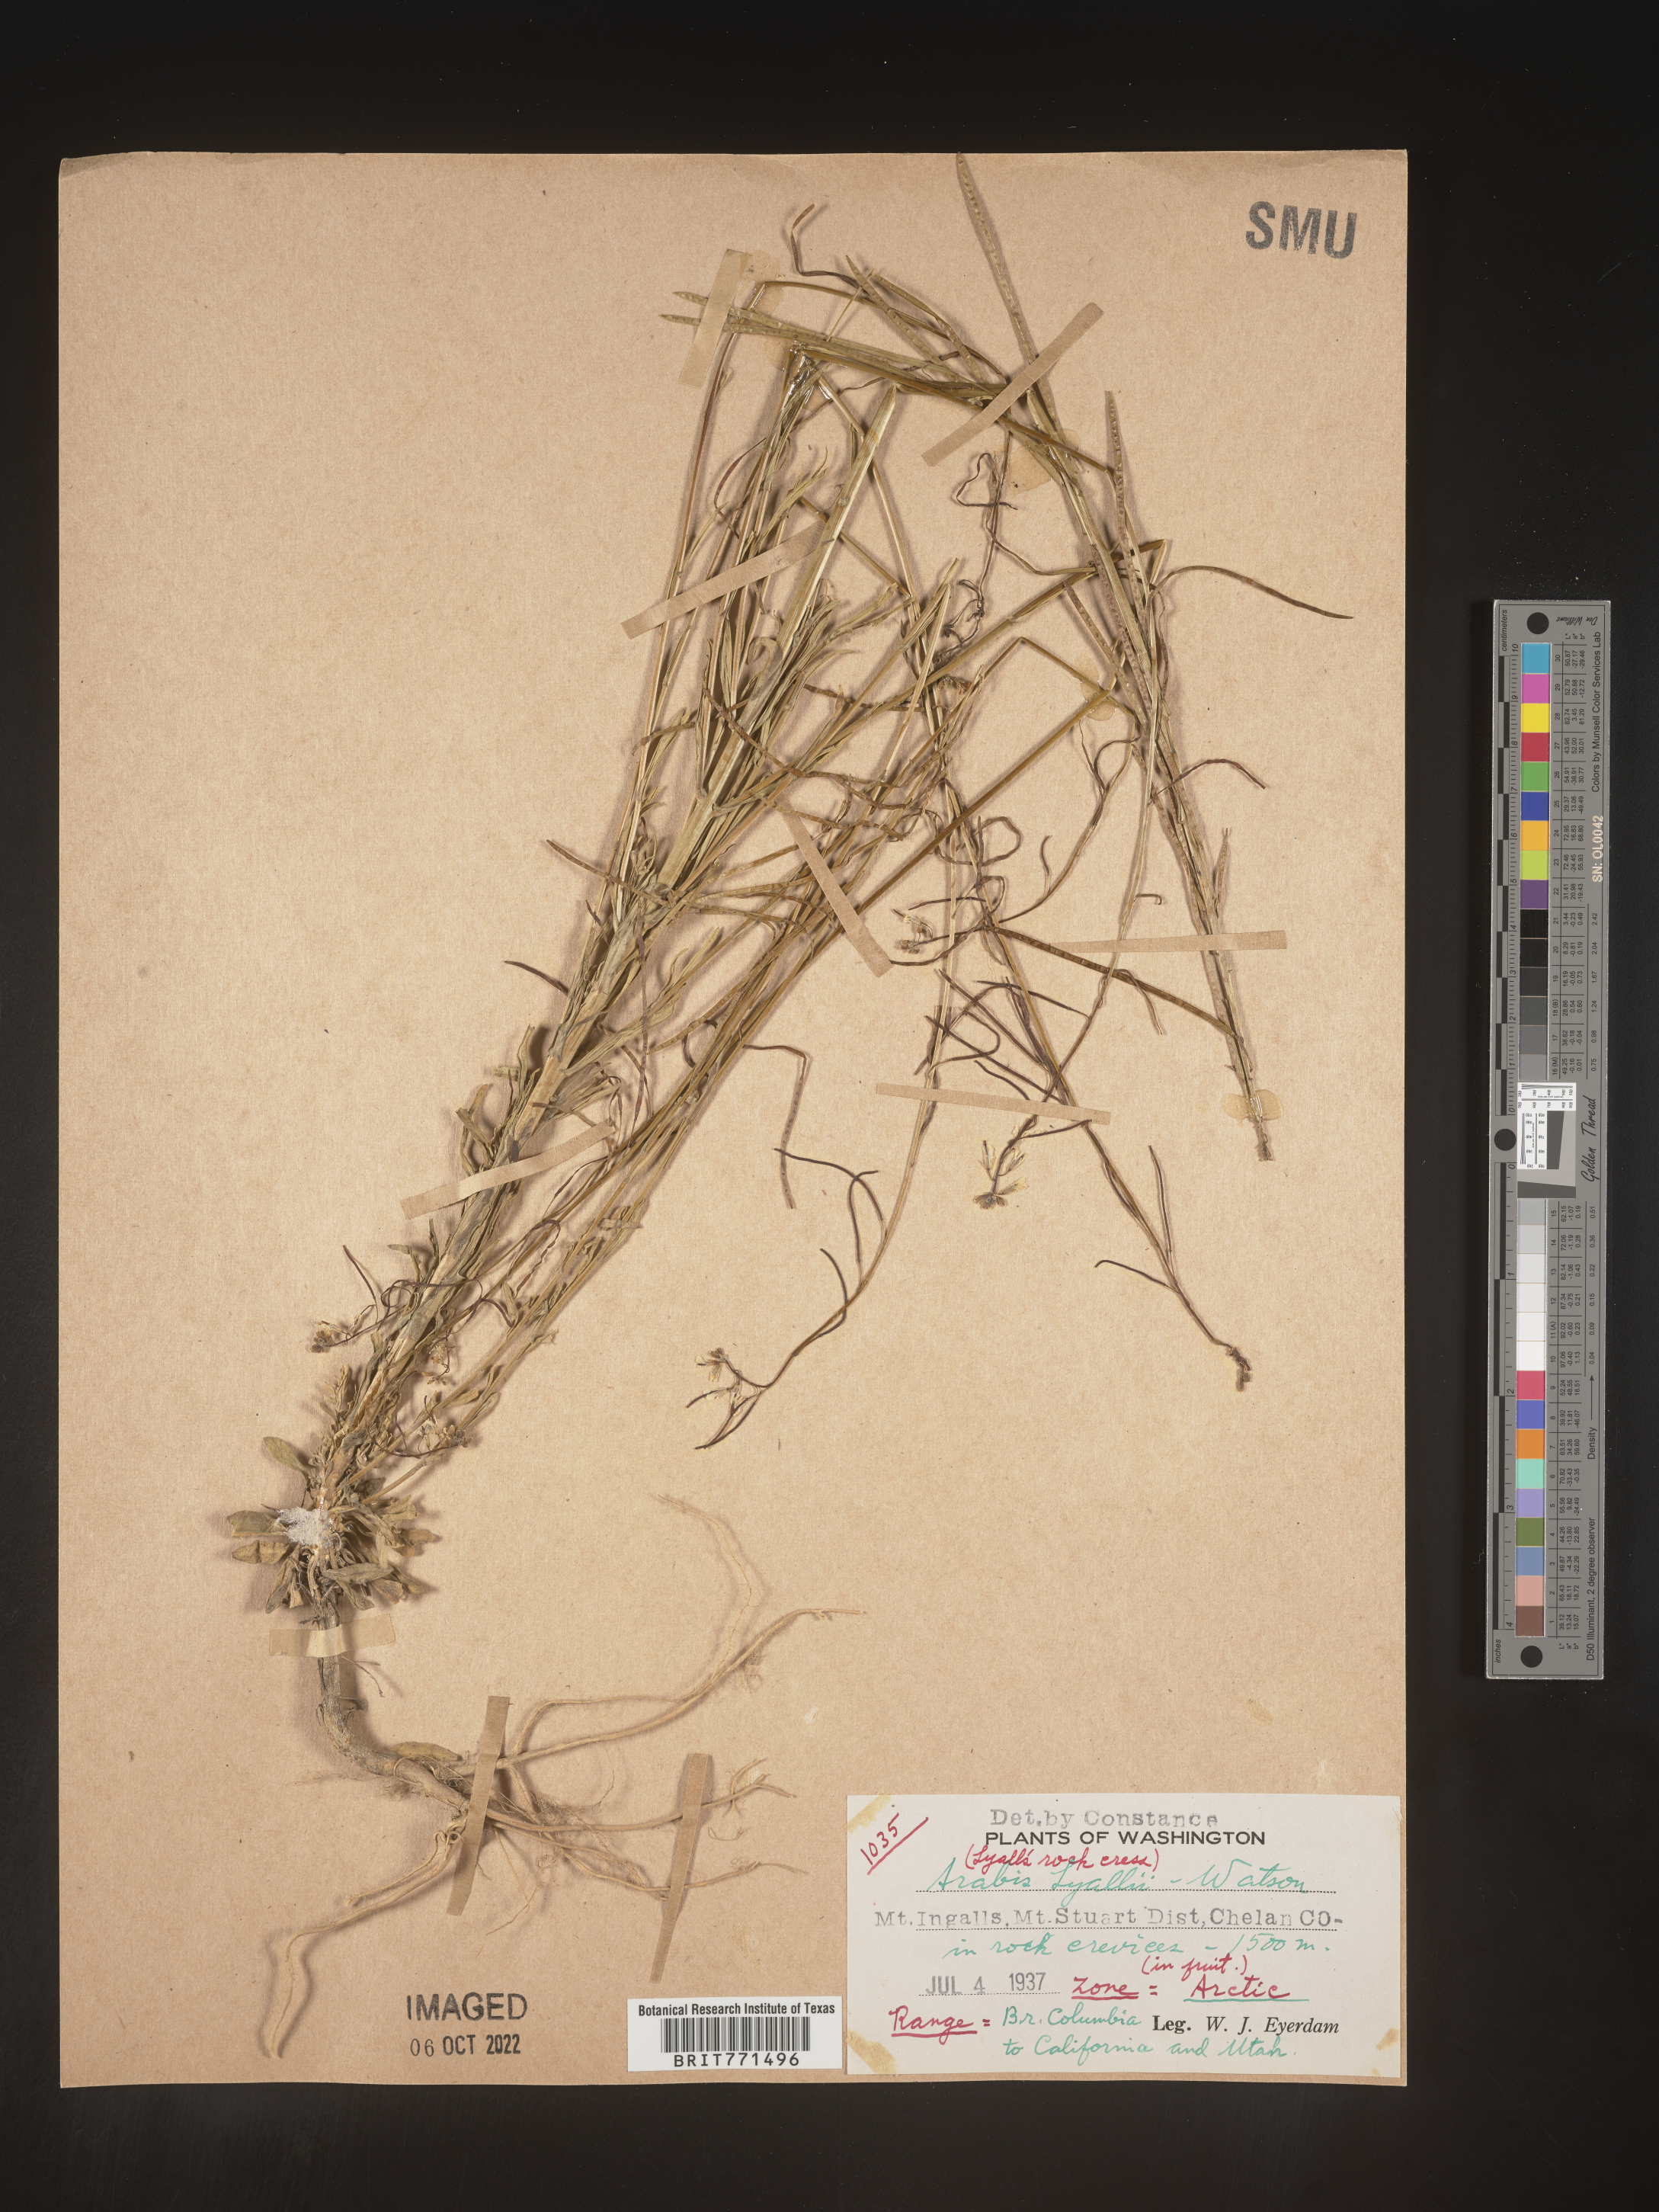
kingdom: Plantae
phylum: Tracheophyta
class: Magnoliopsida
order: Brassicales
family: Brassicaceae
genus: Arabis
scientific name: Arabis
